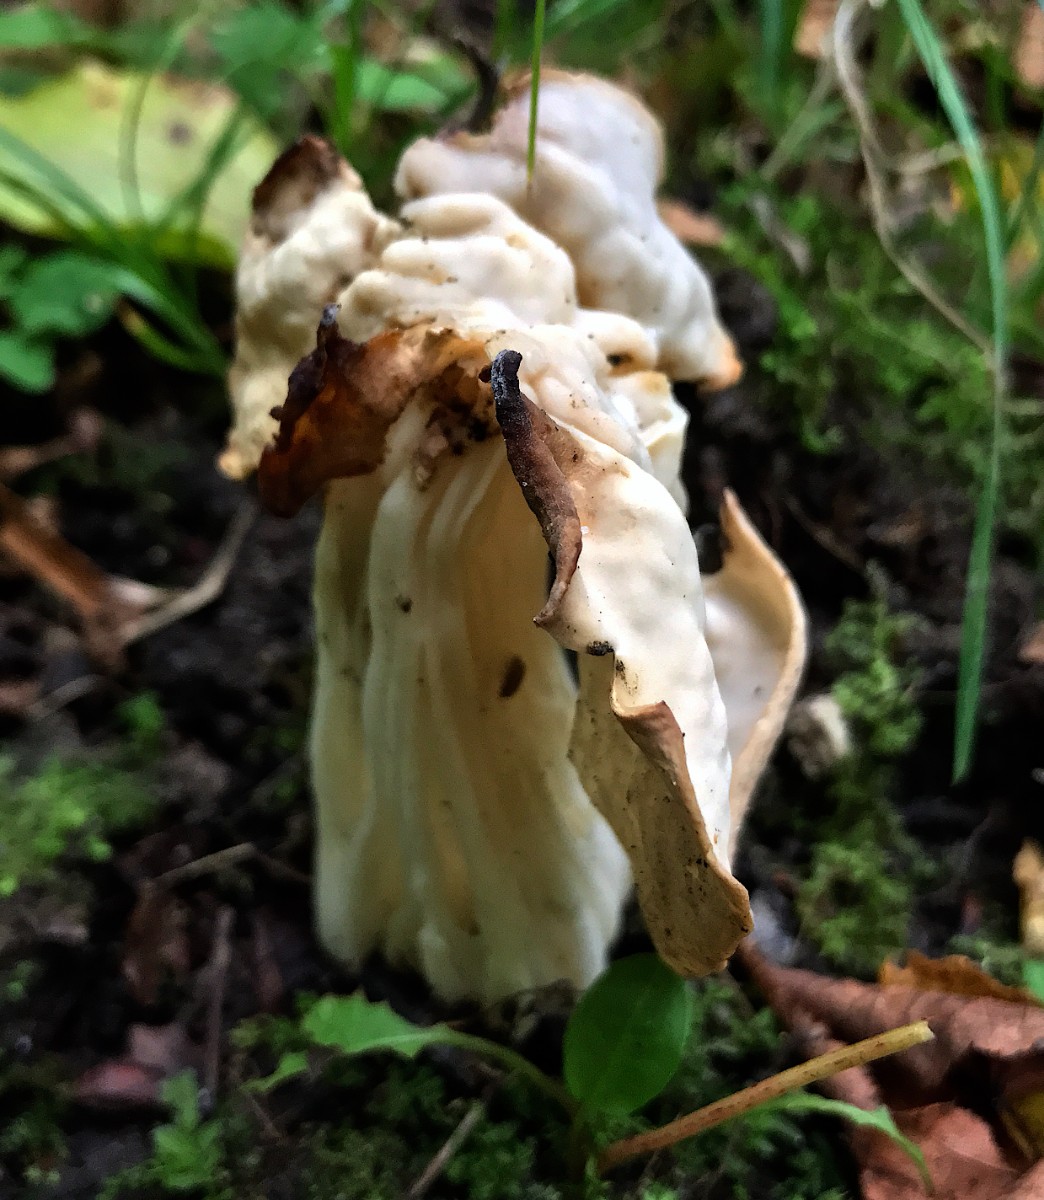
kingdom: Fungi
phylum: Ascomycota
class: Pezizomycetes
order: Pezizales
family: Helvellaceae
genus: Helvella
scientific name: Helvella crispa
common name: kruset foldhat
